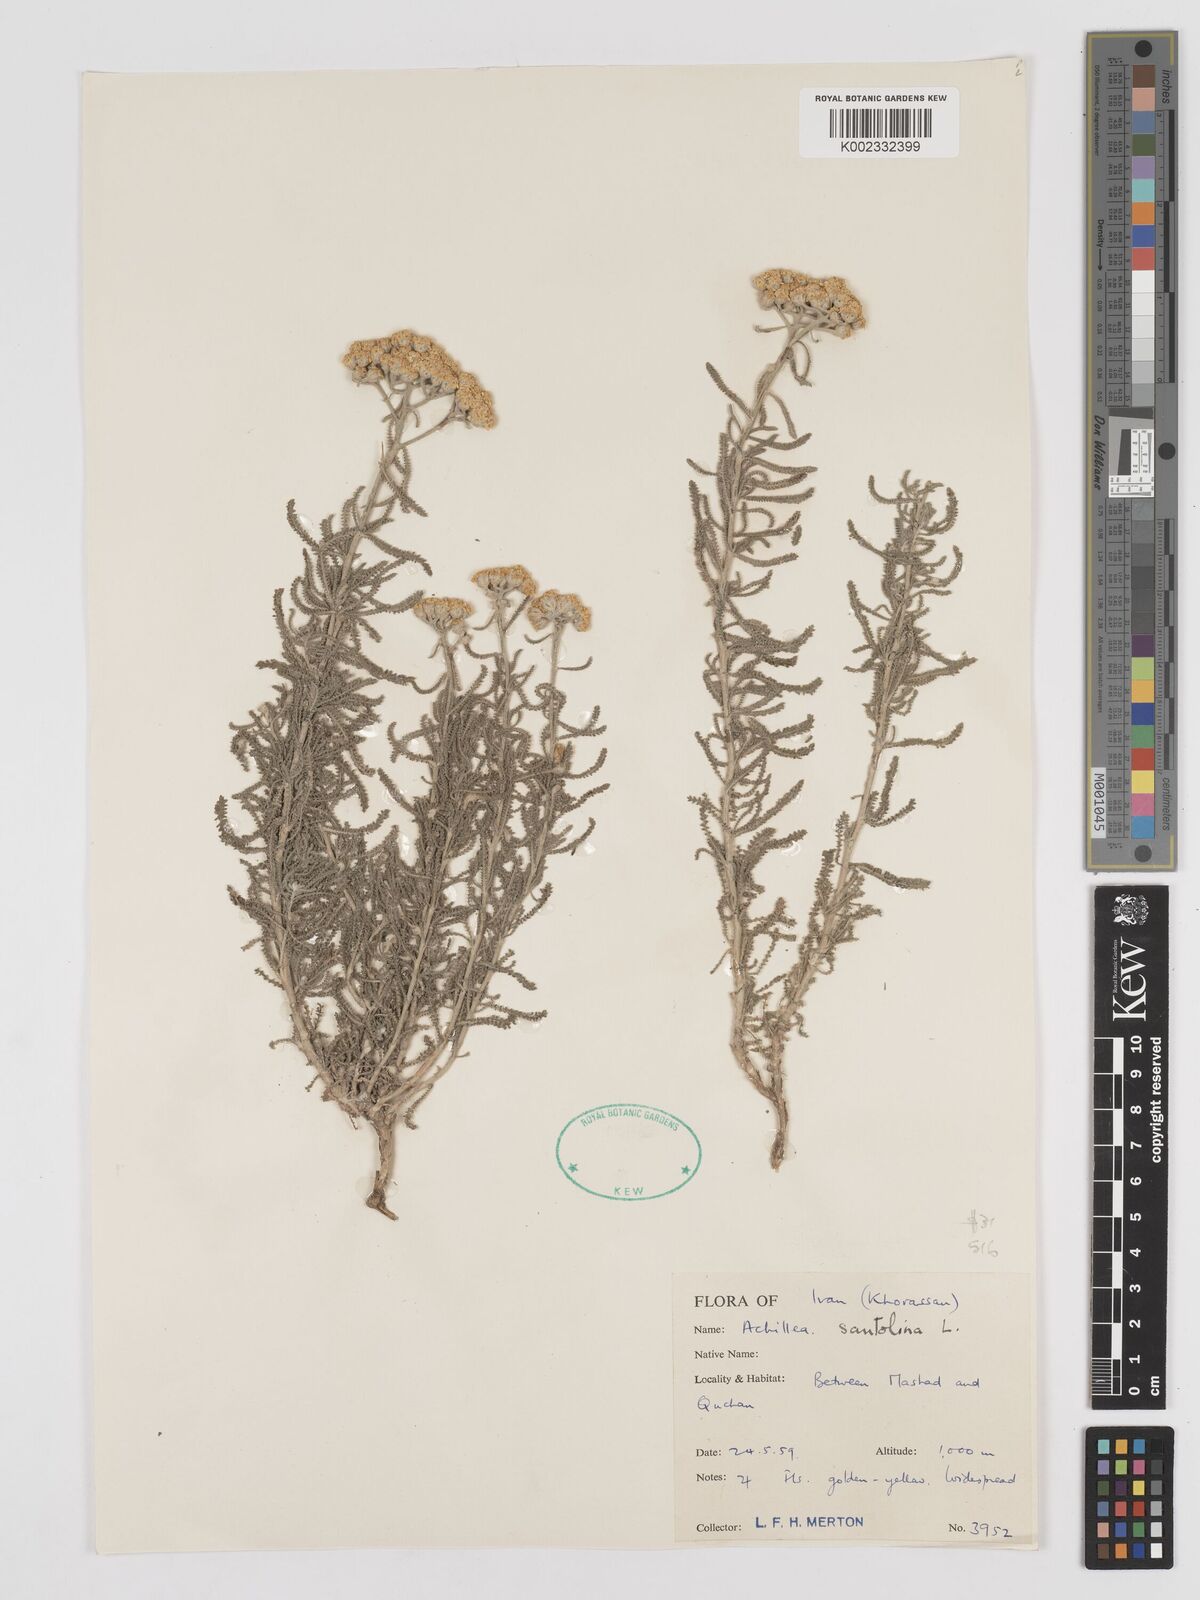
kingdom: Plantae
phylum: Tracheophyta
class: Magnoliopsida
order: Asterales
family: Asteraceae
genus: Achillea
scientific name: Achillea cretica
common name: Chamomile-leaved lavender-cotton
